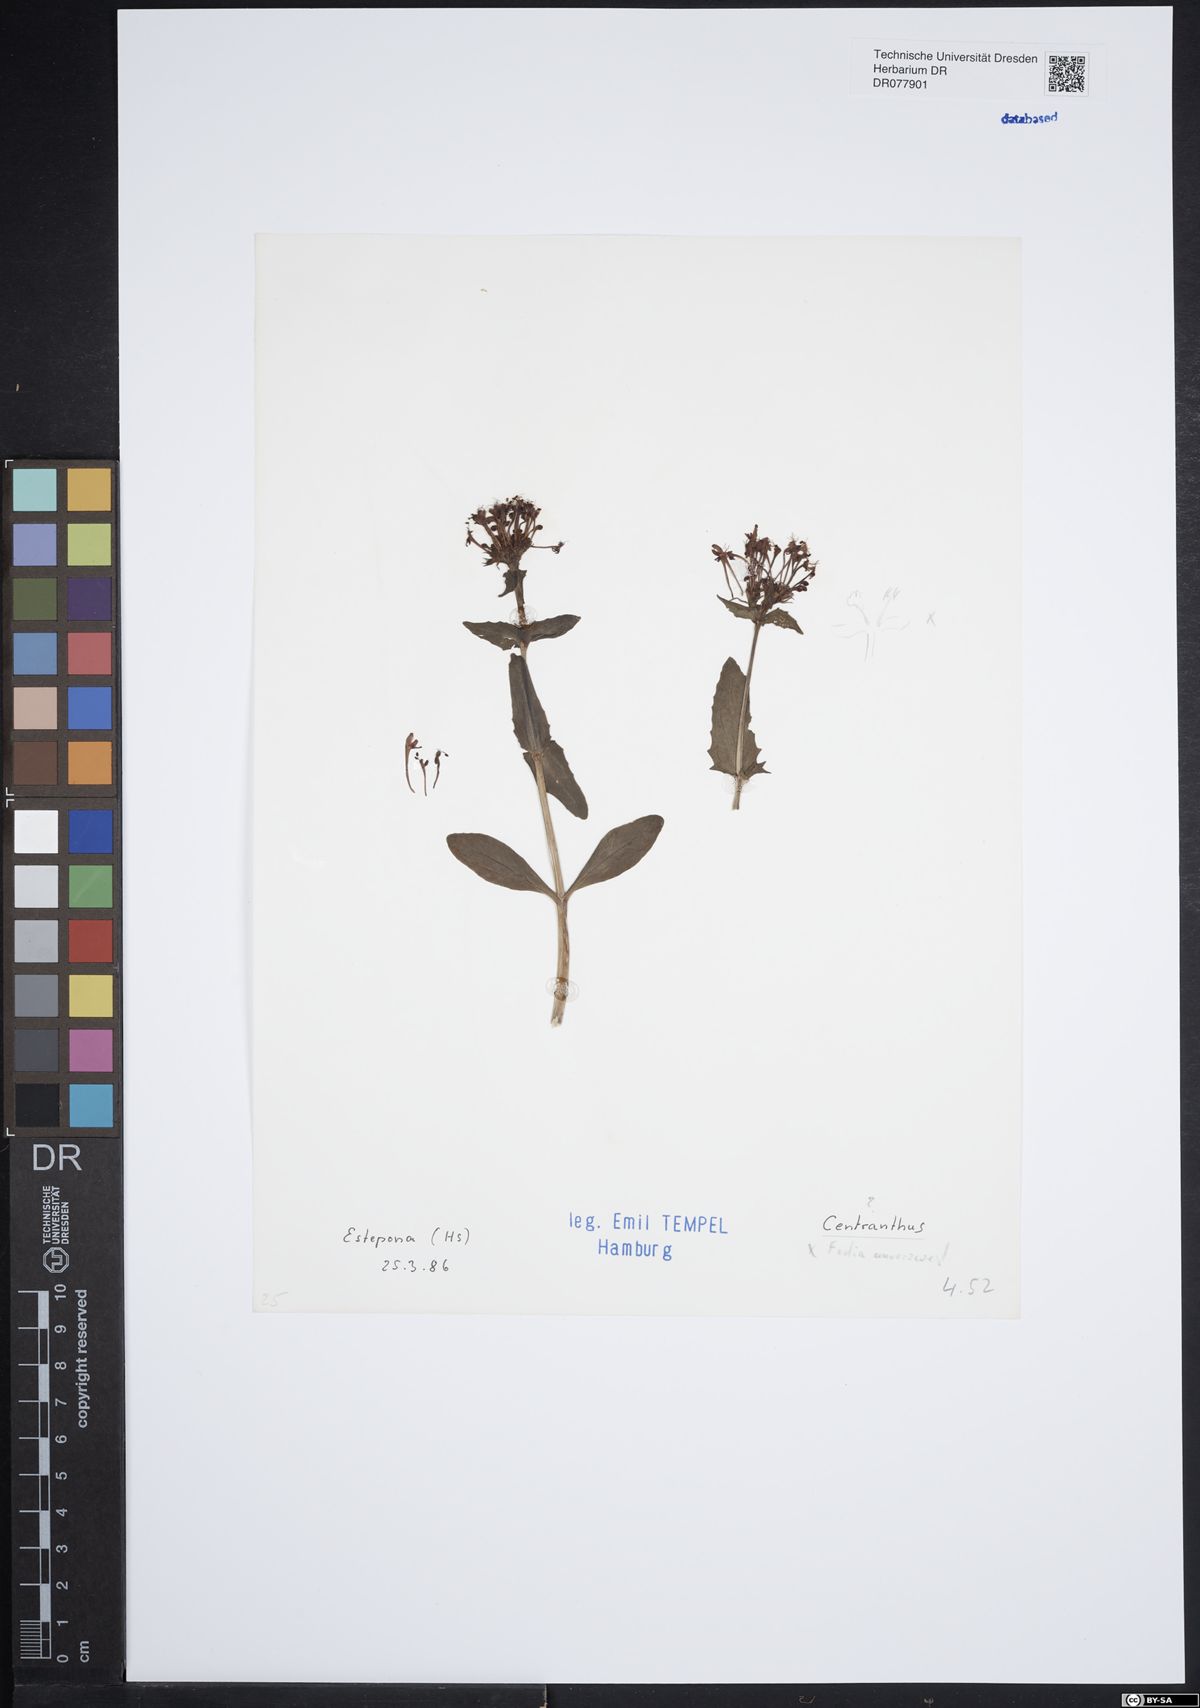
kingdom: Plantae
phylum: Tracheophyta
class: Magnoliopsida
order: Dipsacales
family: Caprifoliaceae
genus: Centranthus
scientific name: Centranthus
